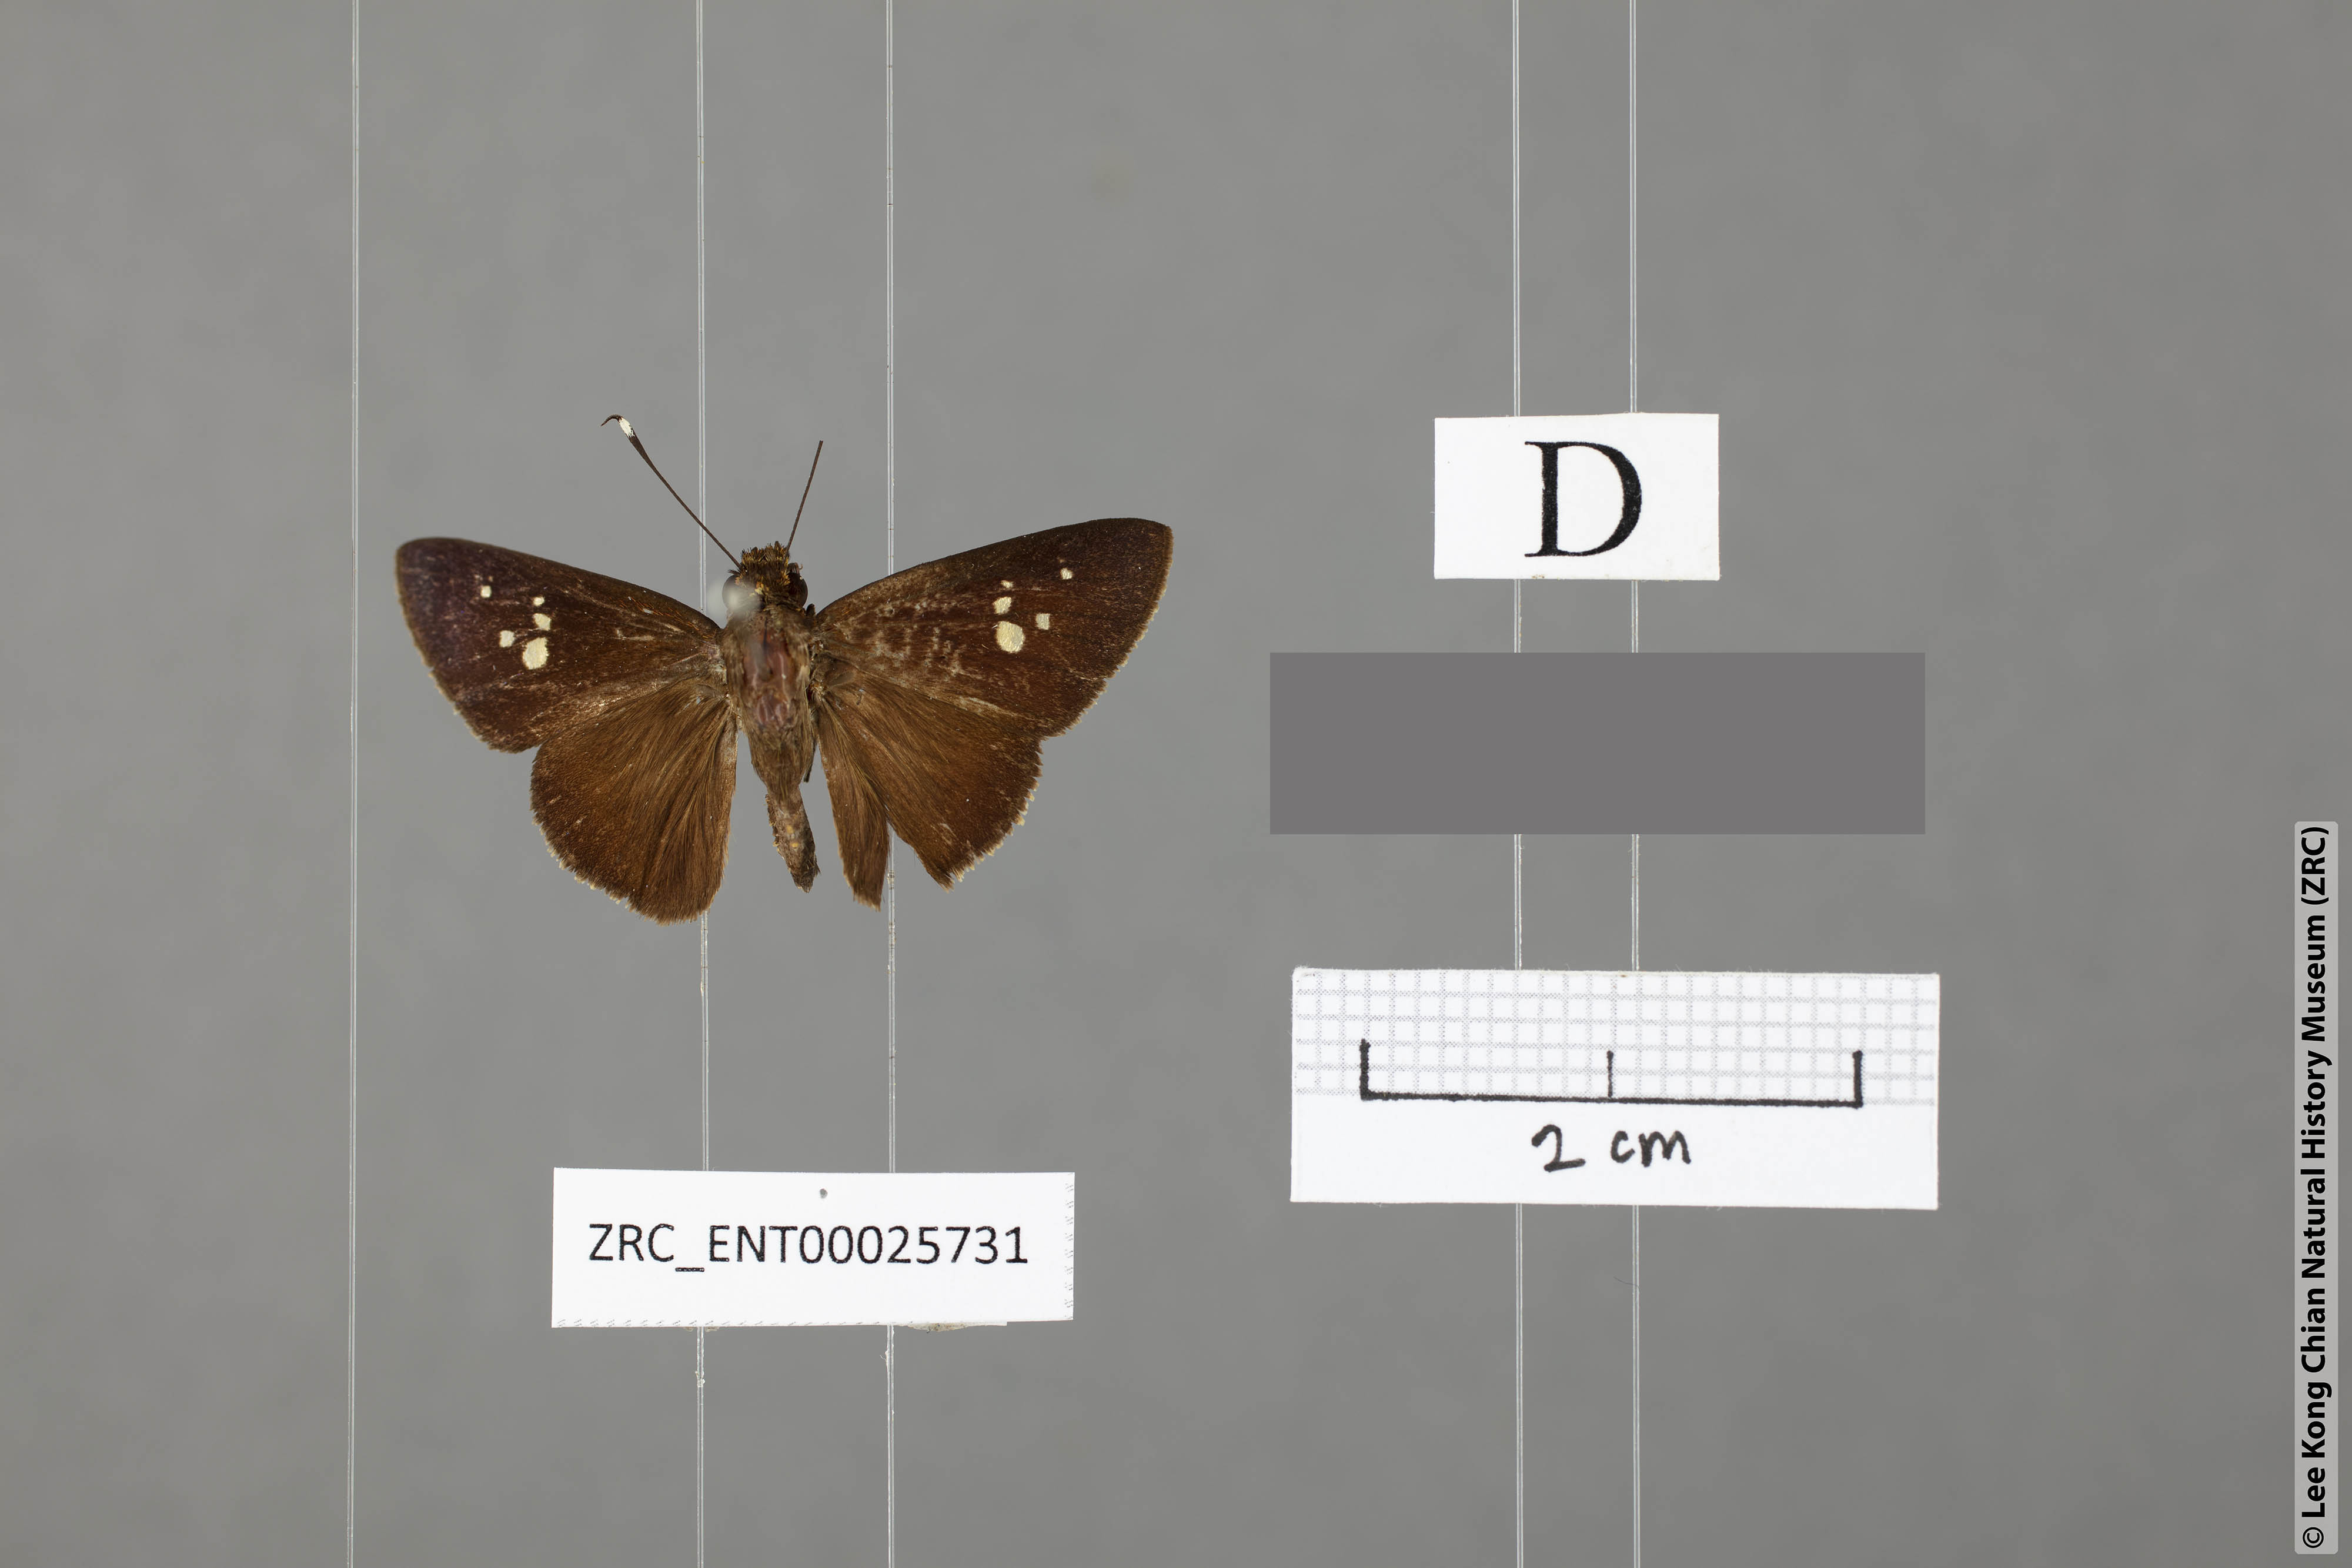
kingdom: Animalia
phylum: Arthropoda
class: Insecta
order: Lepidoptera
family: Hesperiidae
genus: Zographetus
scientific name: Zographetus kutu
